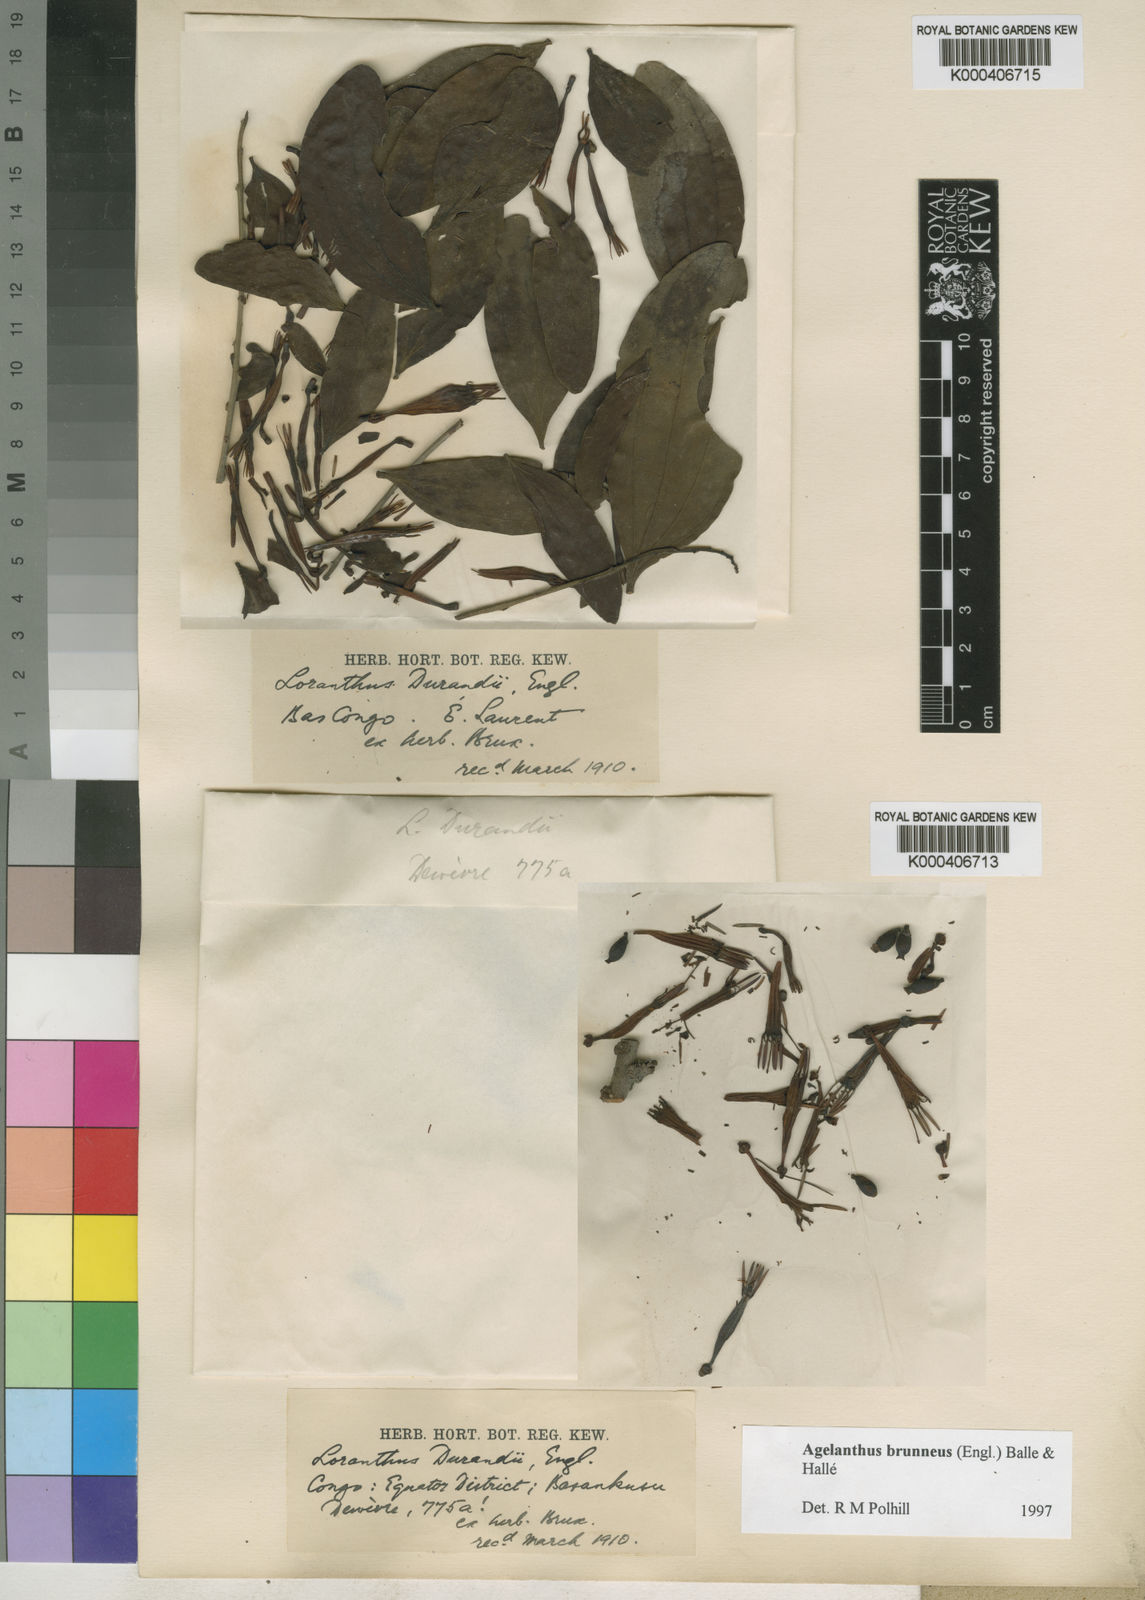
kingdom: Plantae
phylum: Tracheophyta
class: Magnoliopsida
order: Santalales
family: Loranthaceae
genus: Agelanthus
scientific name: Agelanthus
